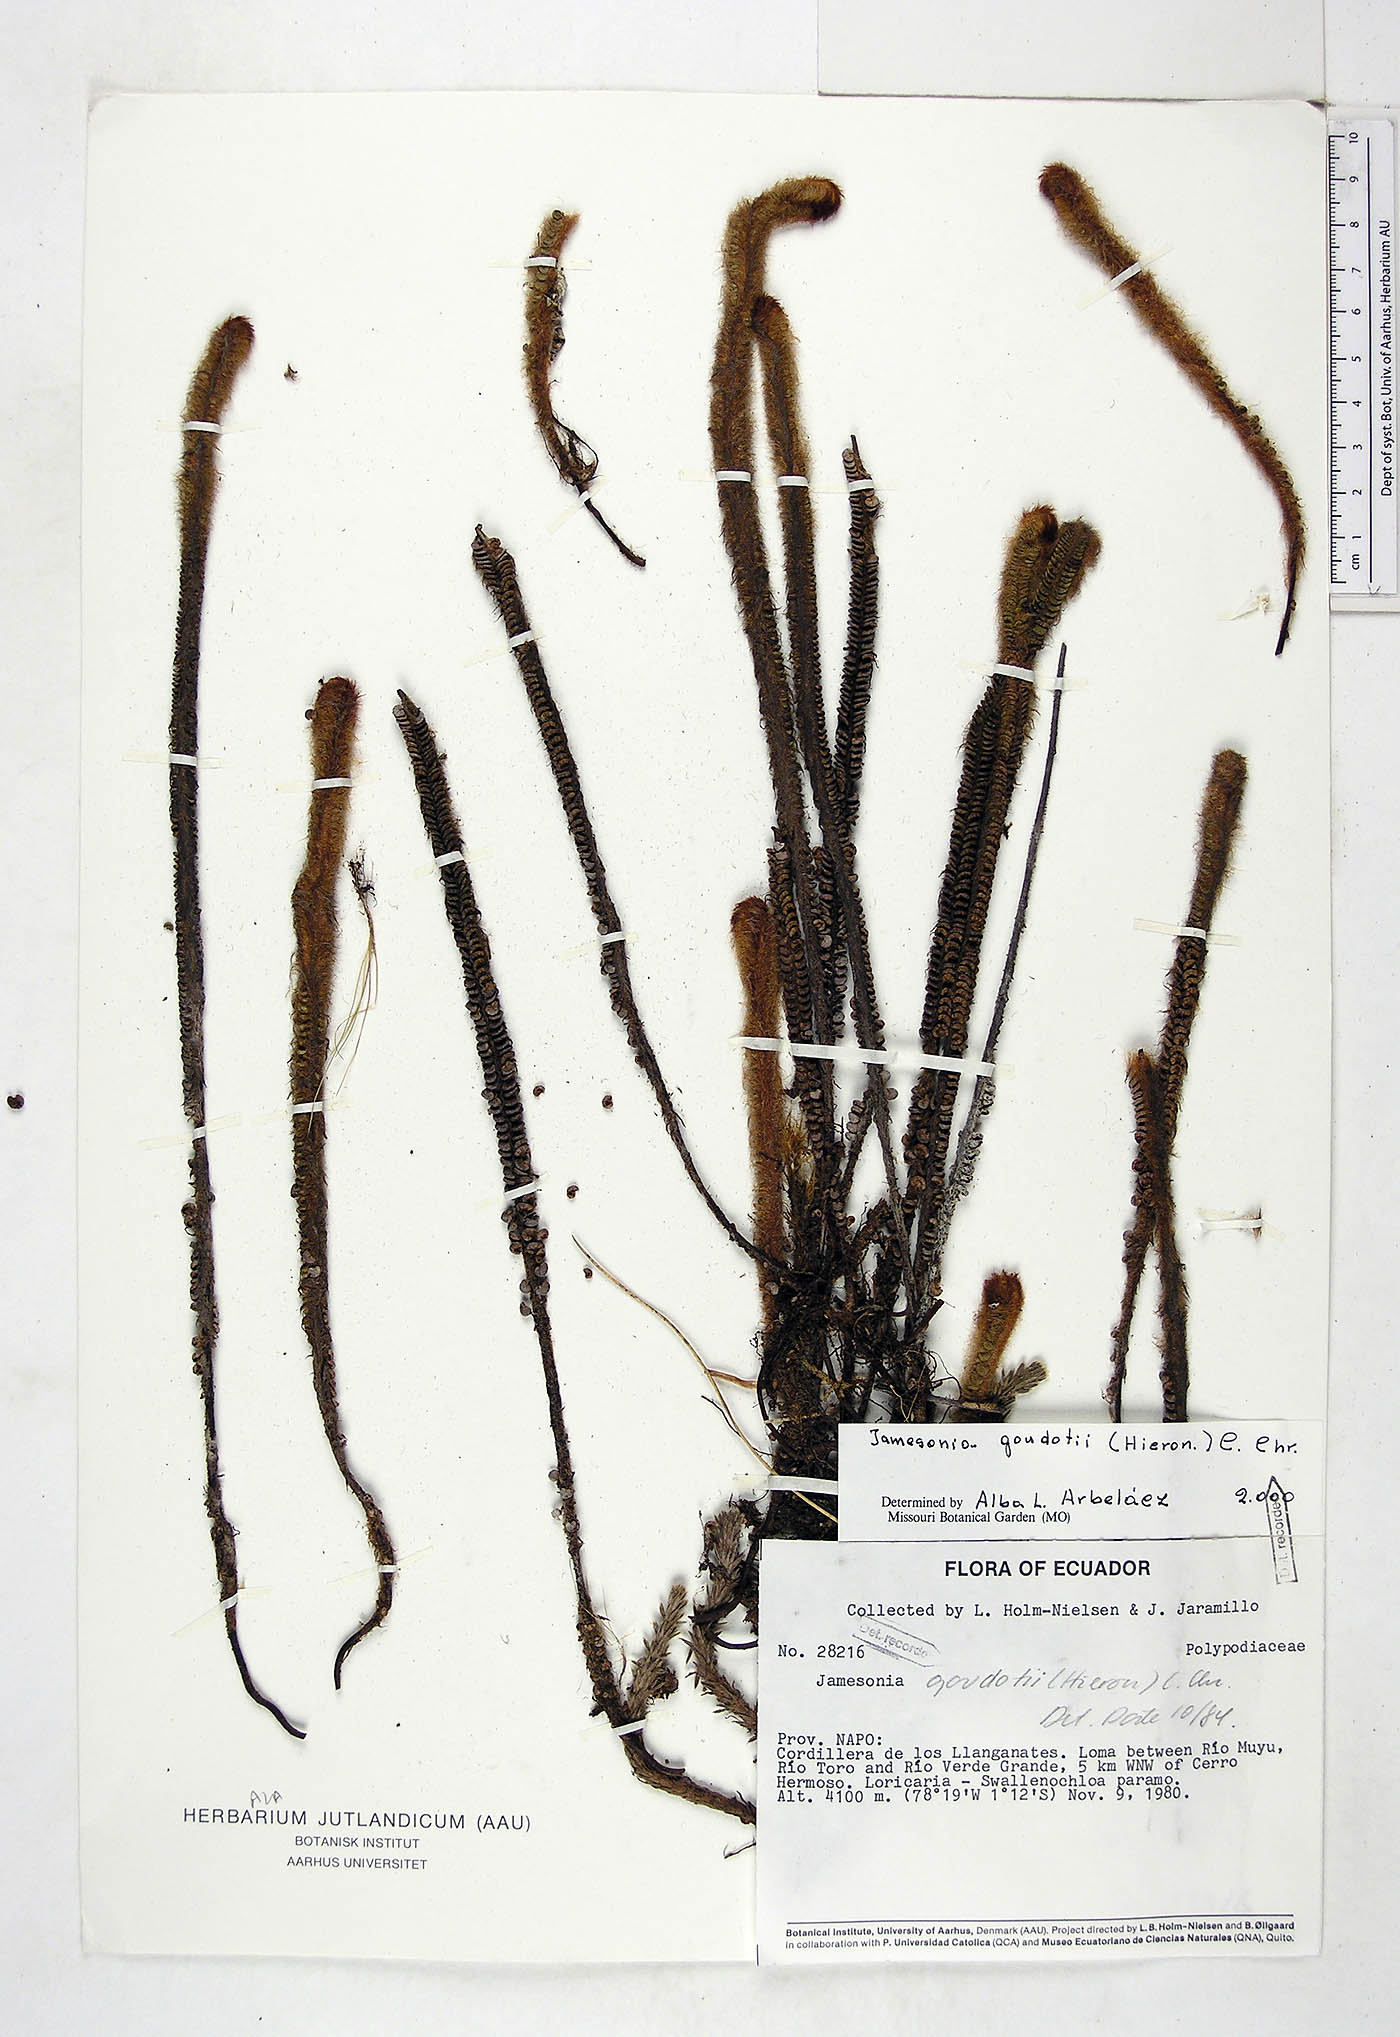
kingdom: Plantae
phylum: Tracheophyta
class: Polypodiopsida
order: Polypodiales
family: Pteridaceae
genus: Jamesonia
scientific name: Jamesonia goudotii
